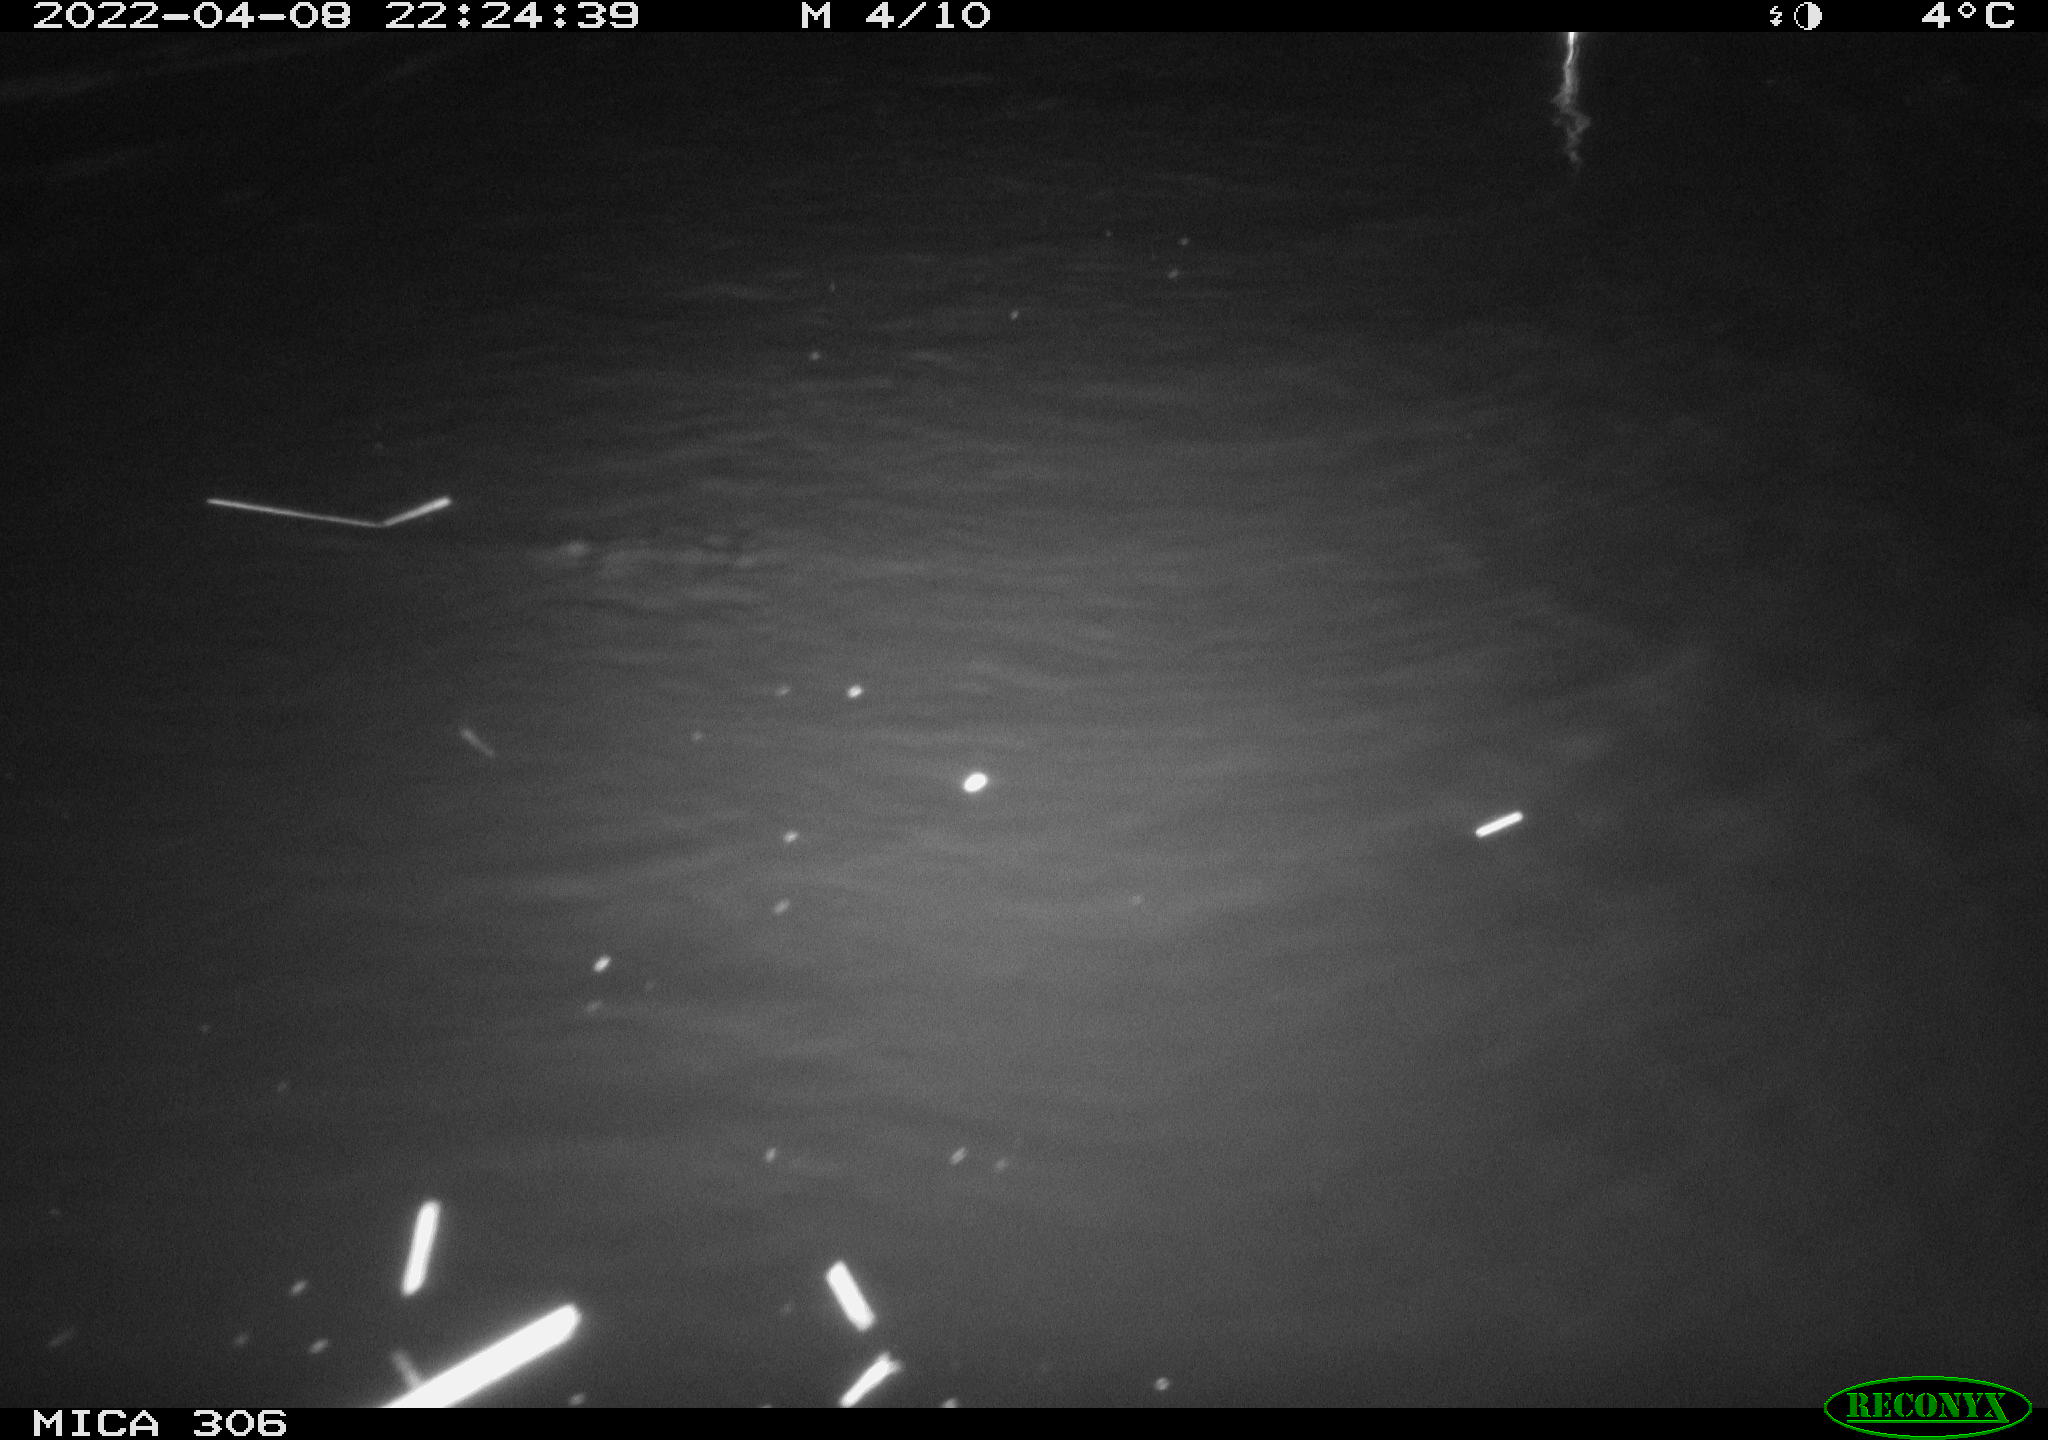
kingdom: Animalia
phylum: Chordata
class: Mammalia
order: Rodentia
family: Cricetidae
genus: Ondatra
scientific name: Ondatra zibethicus
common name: Muskrat
